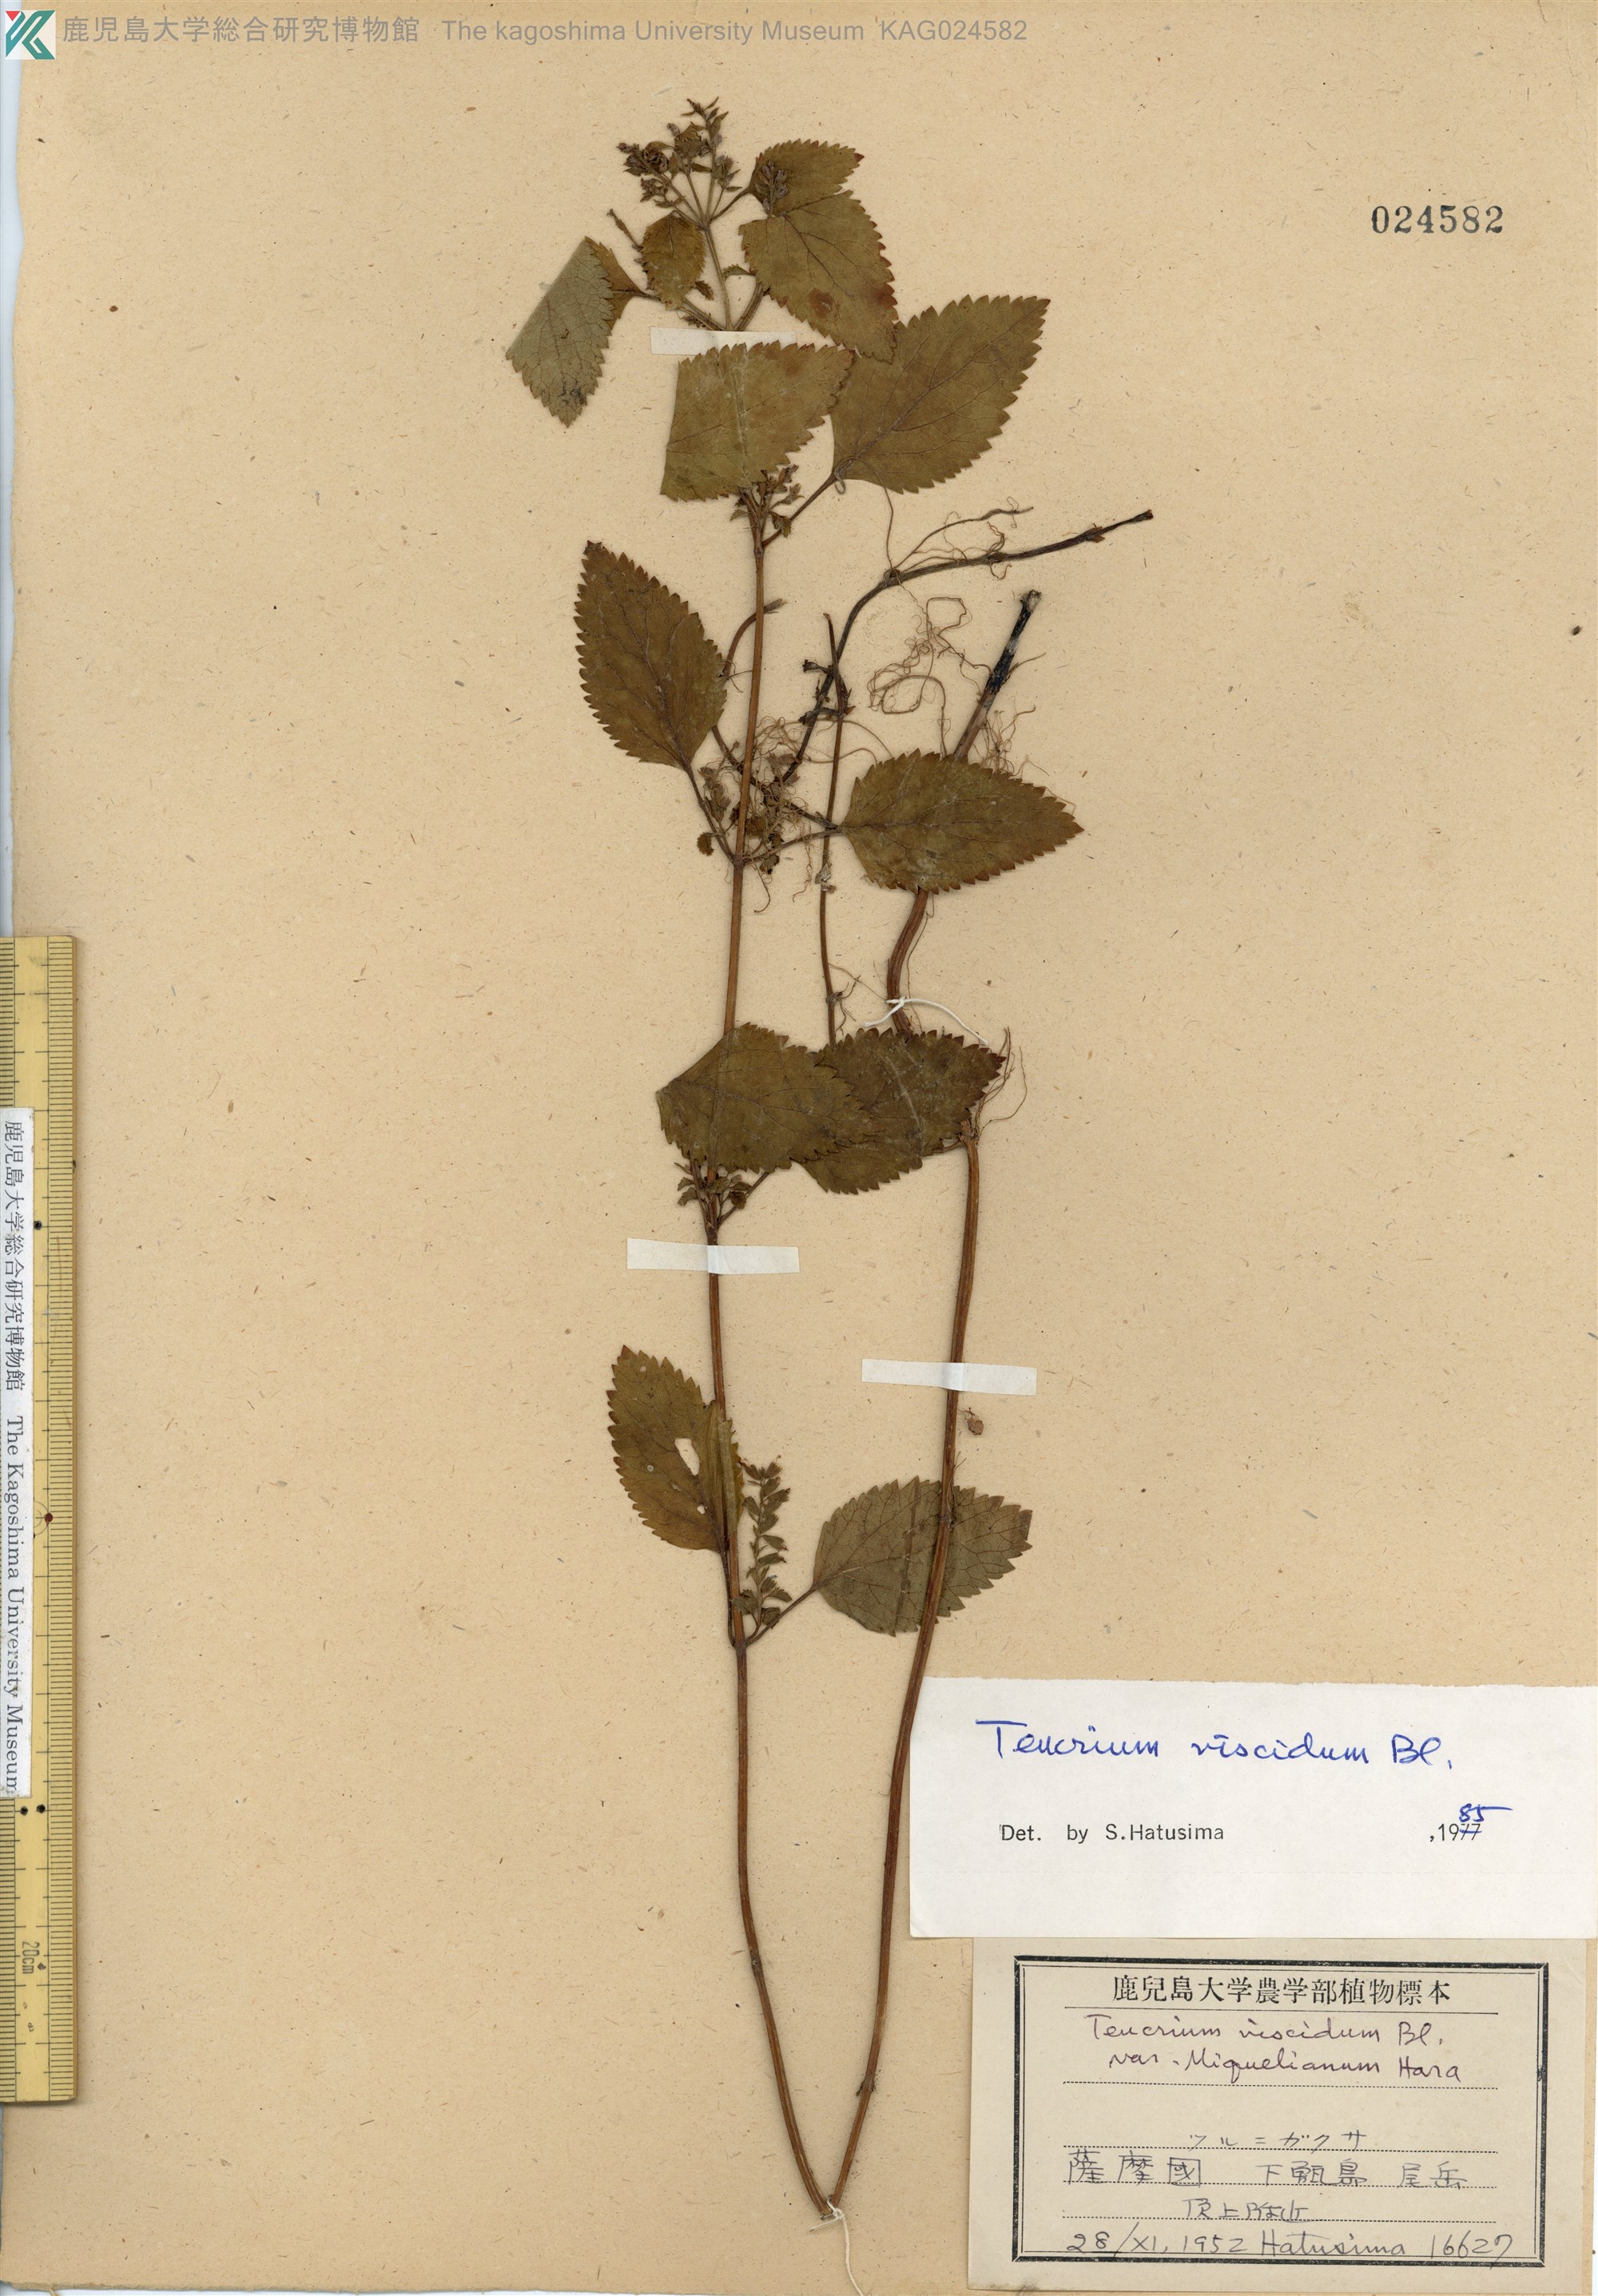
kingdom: Plantae
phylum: Tracheophyta
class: Magnoliopsida
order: Lamiales
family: Lamiaceae
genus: Teucrium
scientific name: Teucrium viscidum
